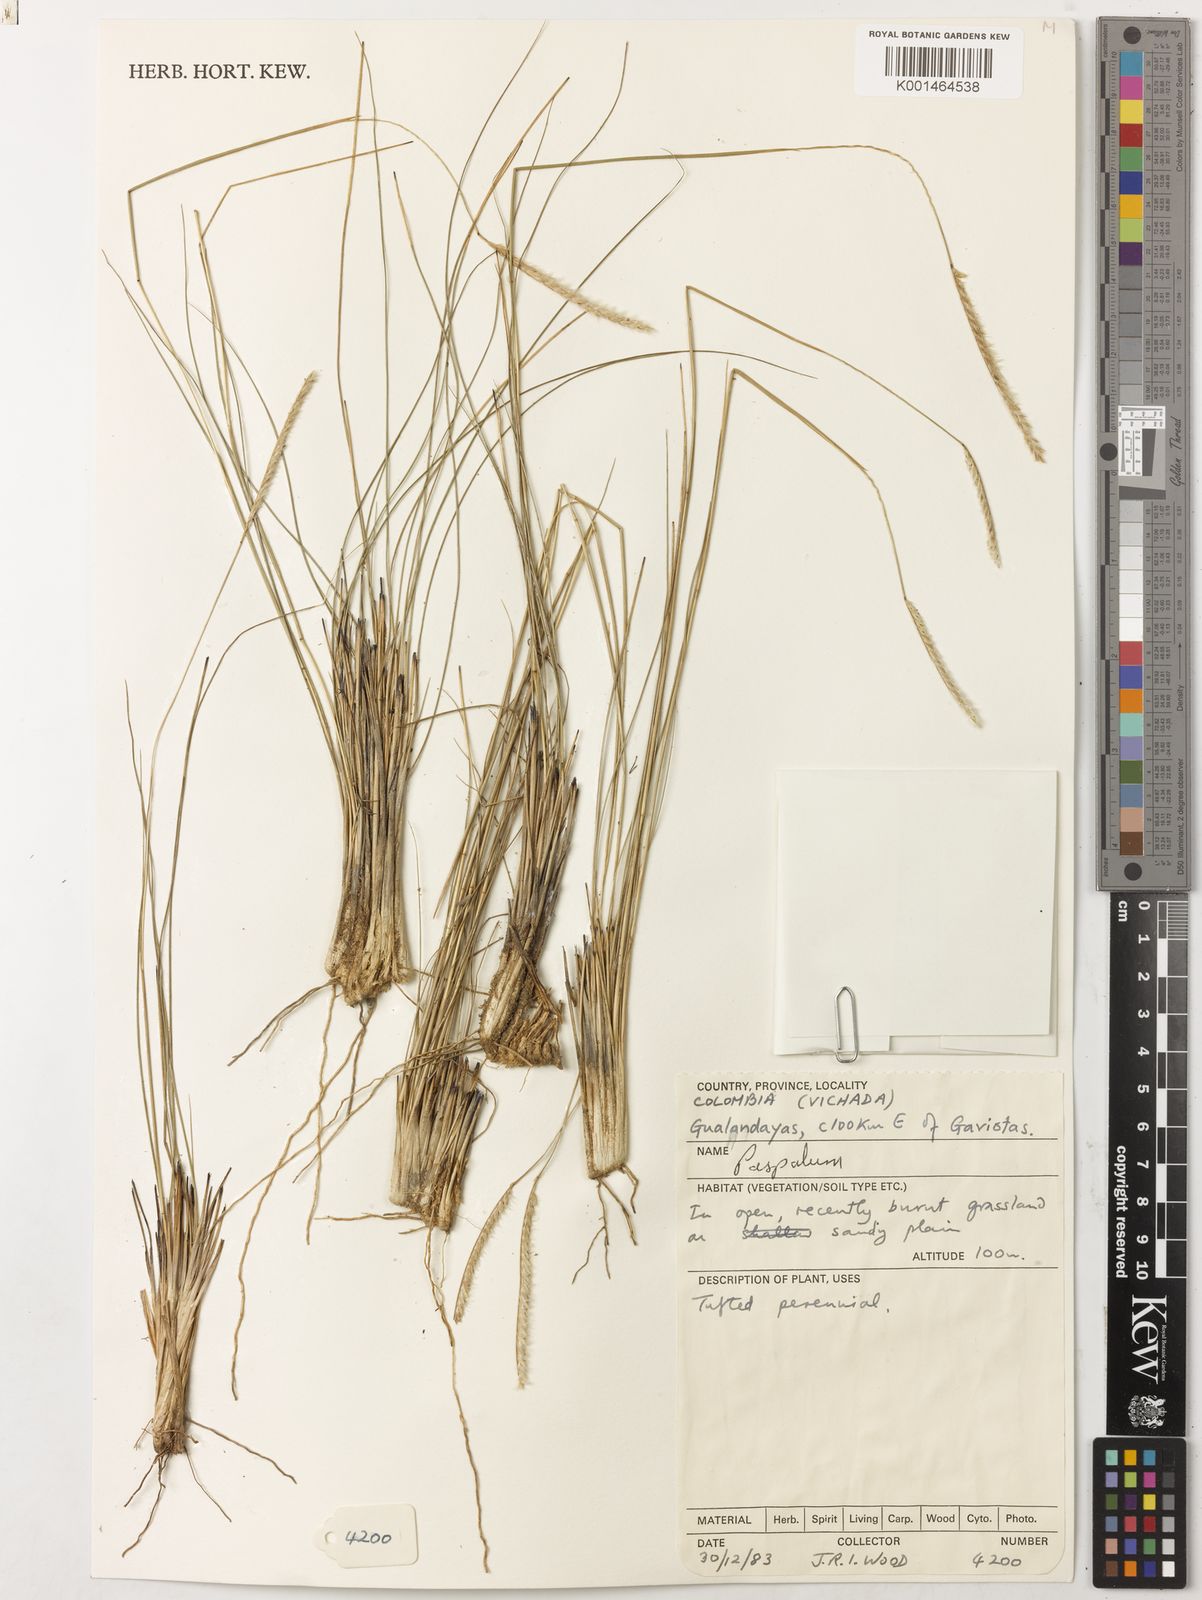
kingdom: Plantae
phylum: Tracheophyta
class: Liliopsida
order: Poales
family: Poaceae
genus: Paspalum
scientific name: Paspalum
